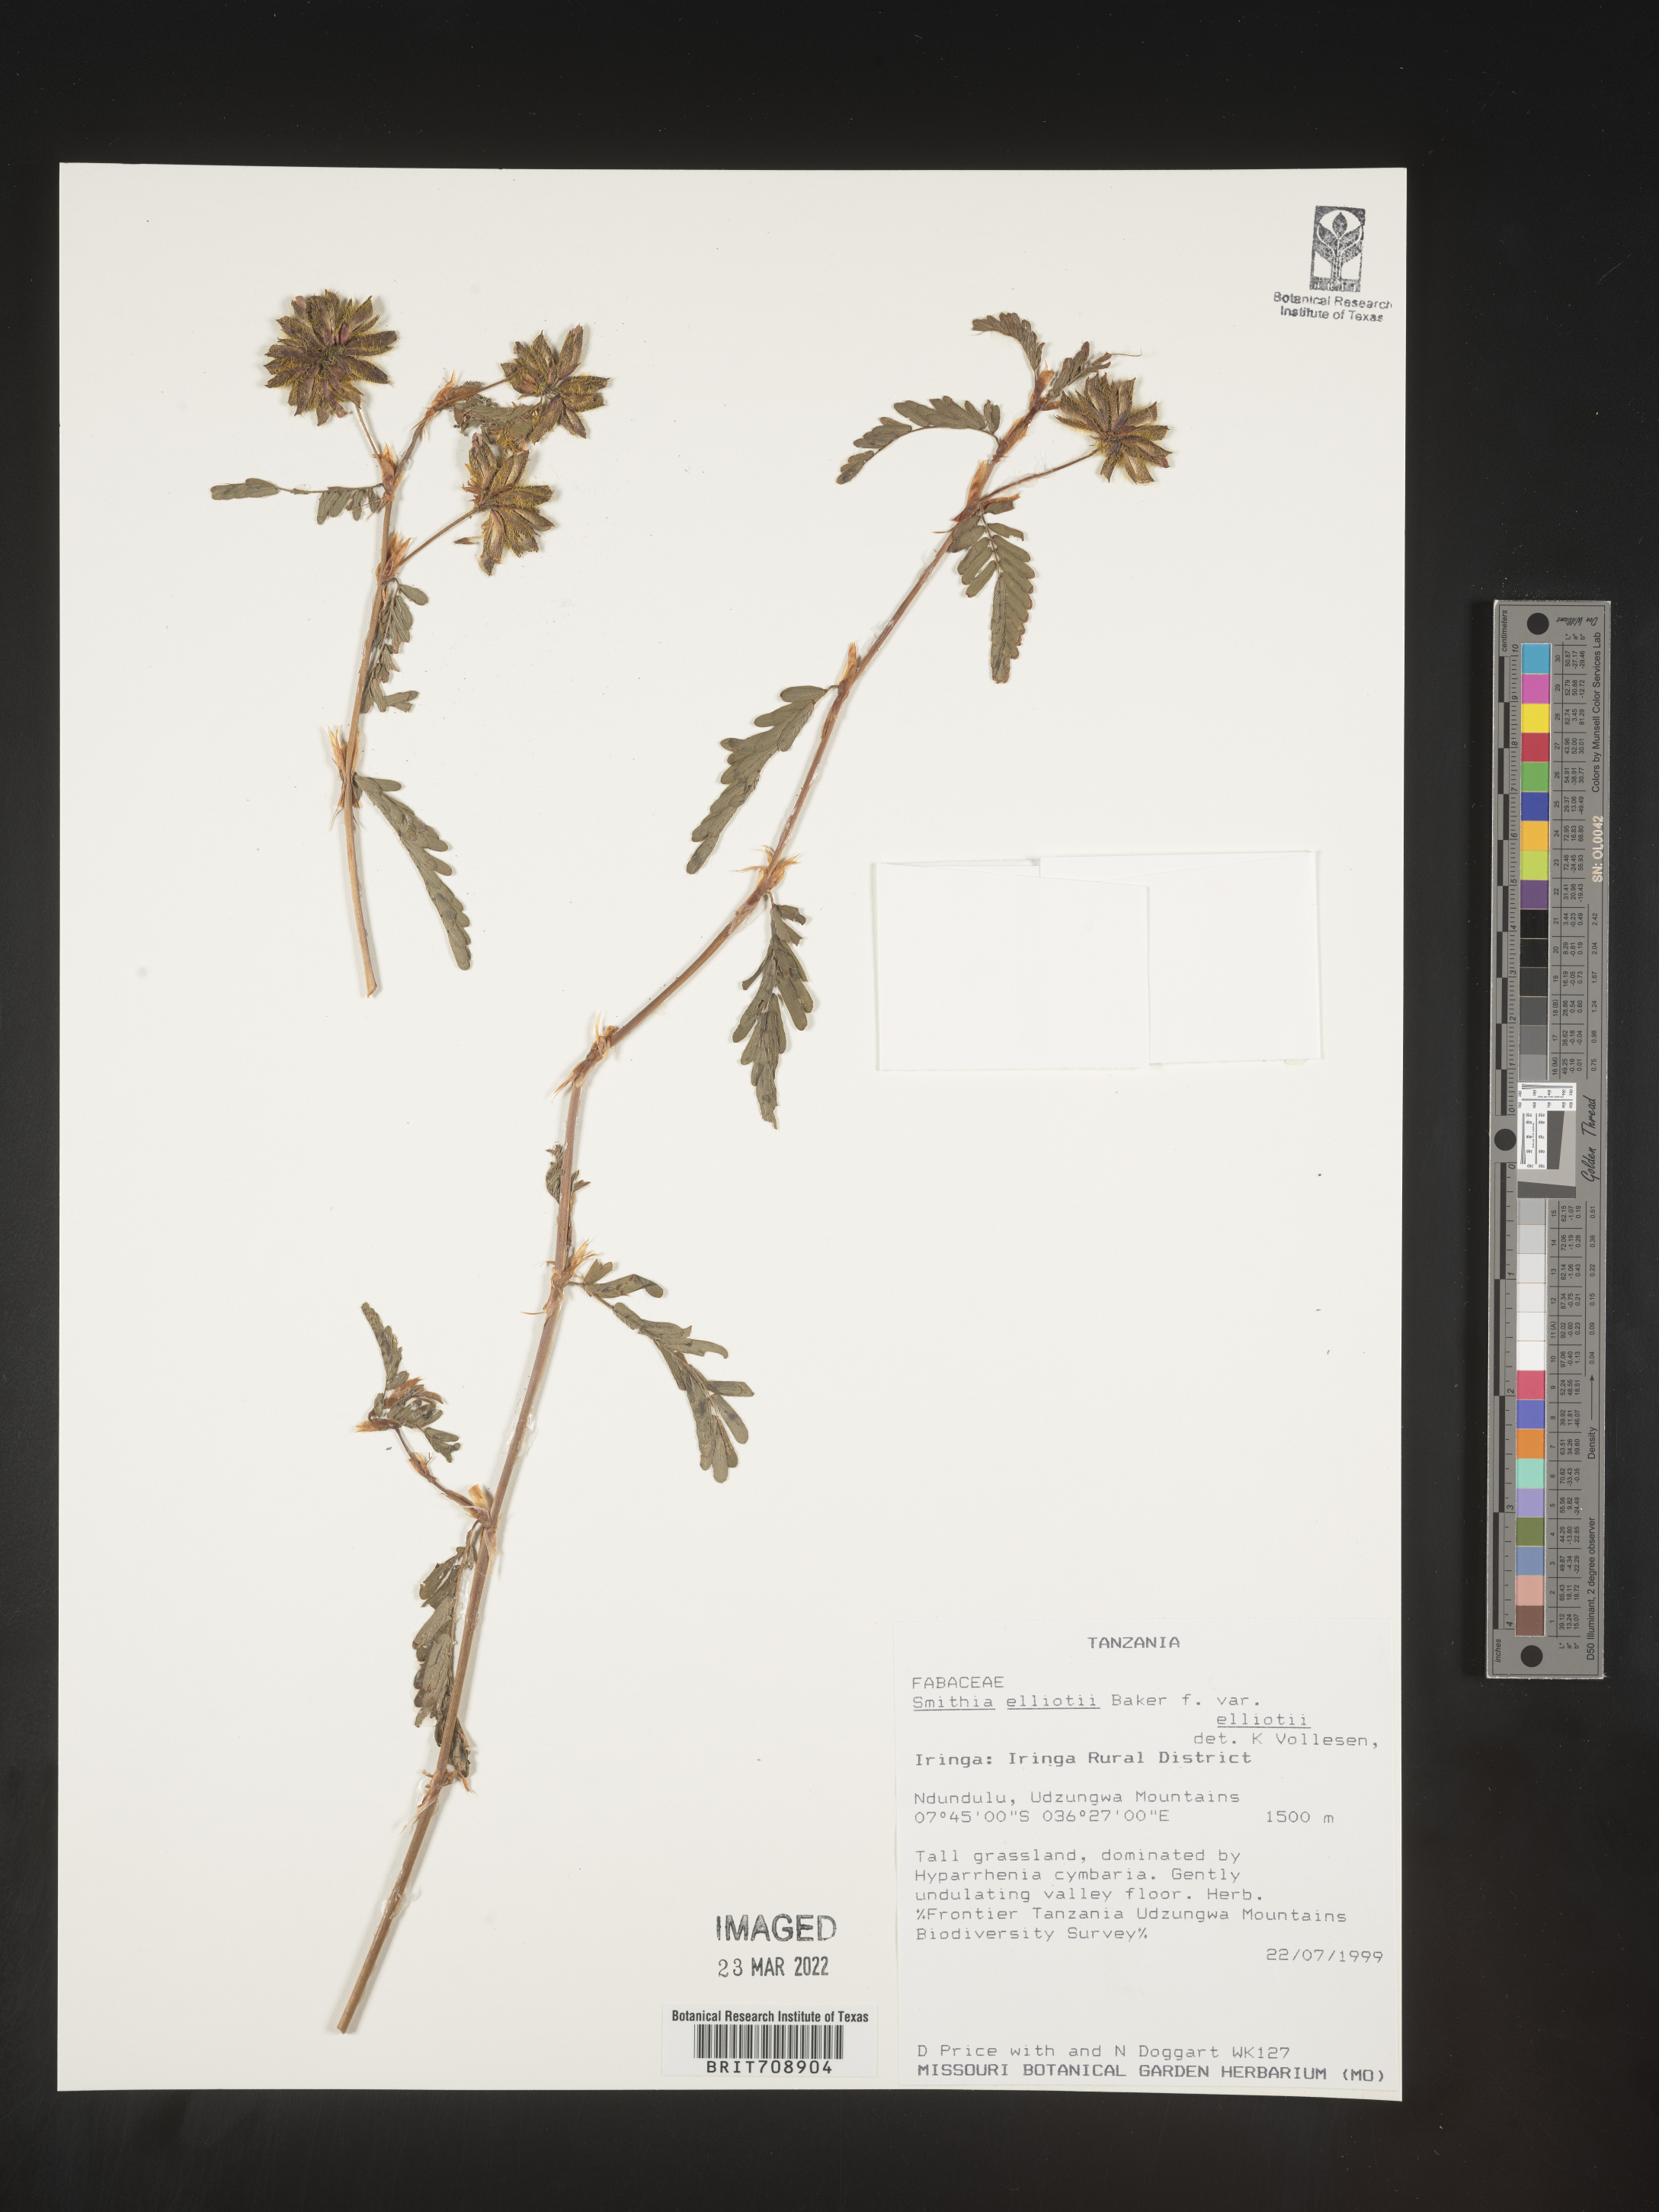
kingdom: Plantae
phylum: Tracheophyta
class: Magnoliopsida
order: Fabales
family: Fabaceae
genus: Smithia
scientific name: Smithia
